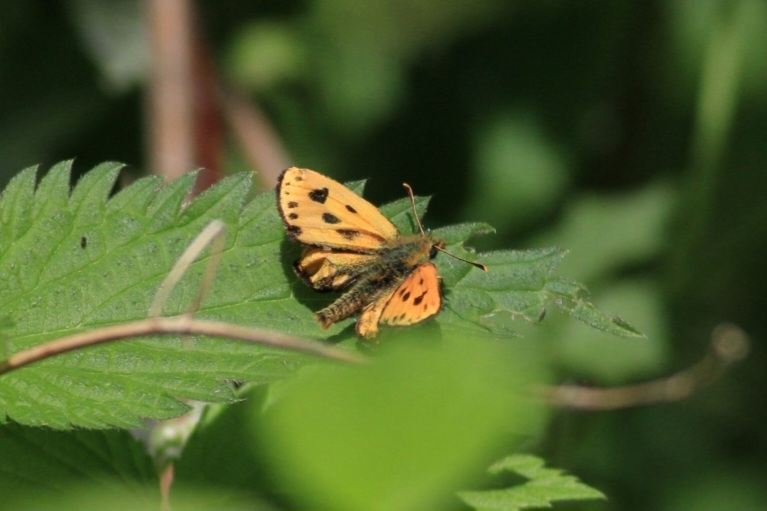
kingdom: Animalia
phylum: Arthropoda
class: Insecta
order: Lepidoptera
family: Hesperiidae
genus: Carterocephalus
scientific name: Carterocephalus silvicola
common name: Sortplettet bredpande
